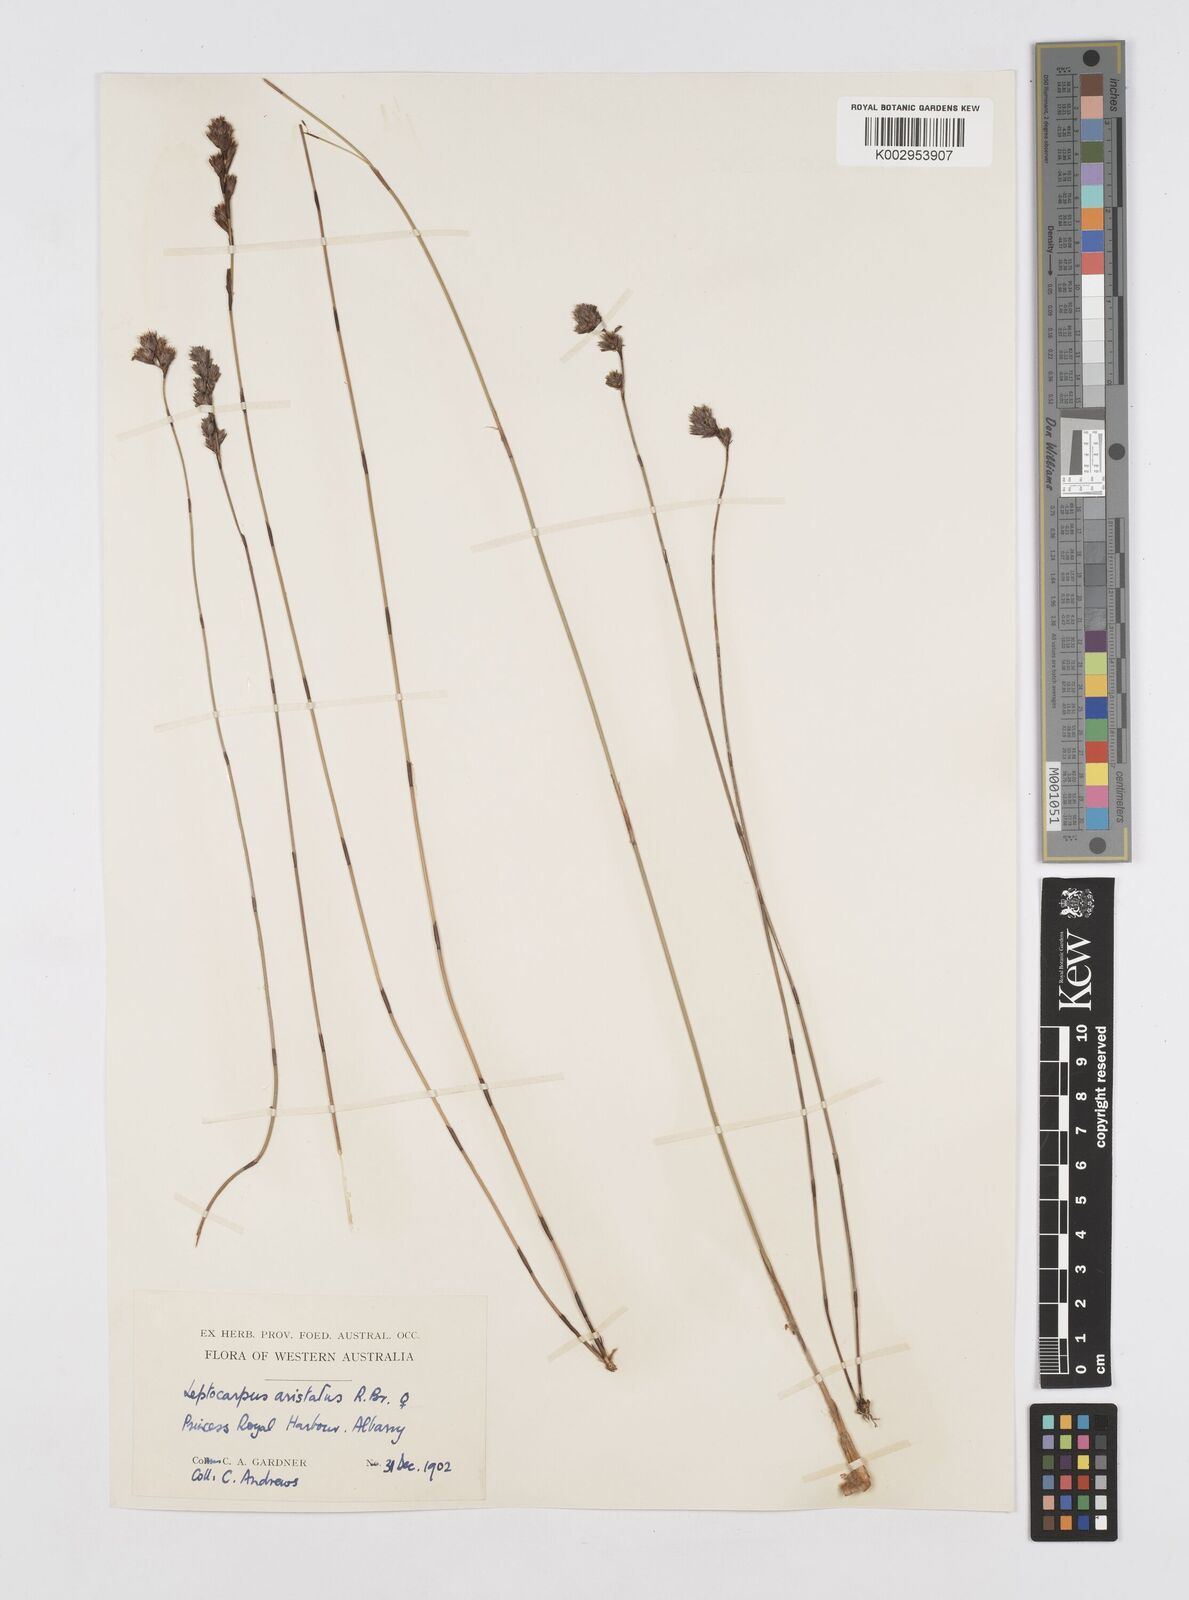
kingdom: Plantae
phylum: Tracheophyta
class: Liliopsida
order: Poales
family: Restionaceae
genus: Chaetanthus
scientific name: Chaetanthus aristatus
